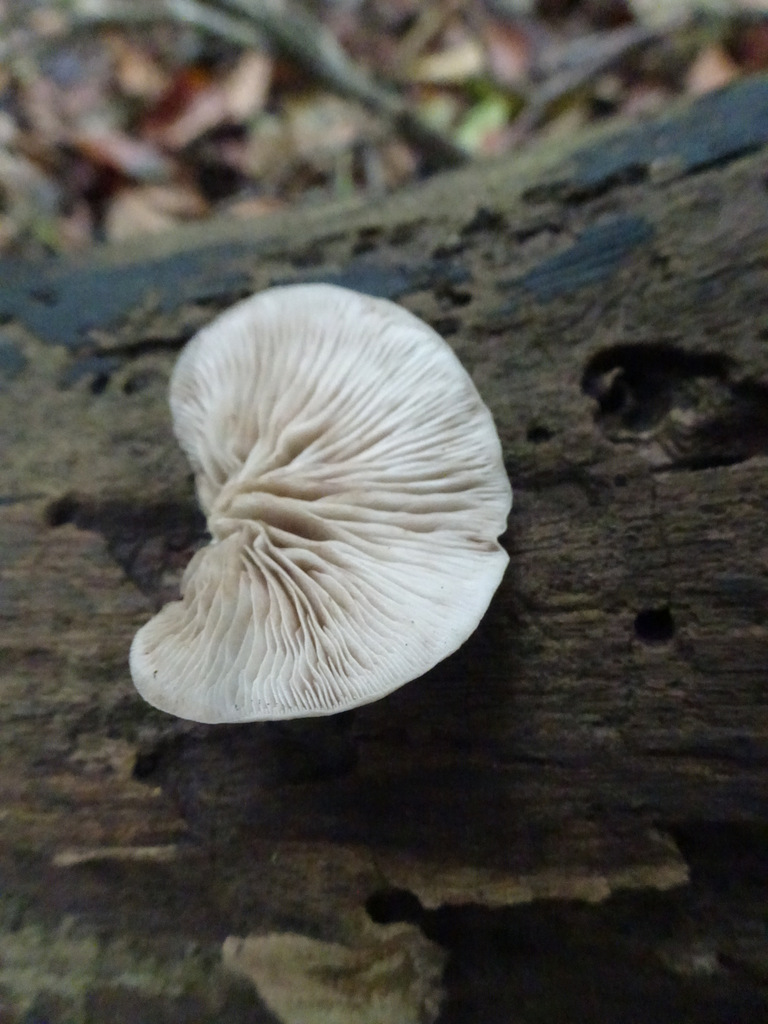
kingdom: Fungi
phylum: Basidiomycota
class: Agaricomycetes
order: Agaricales
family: Crepidotaceae
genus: Crepidotus
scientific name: Crepidotus mollis
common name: blød muslingesvamp
